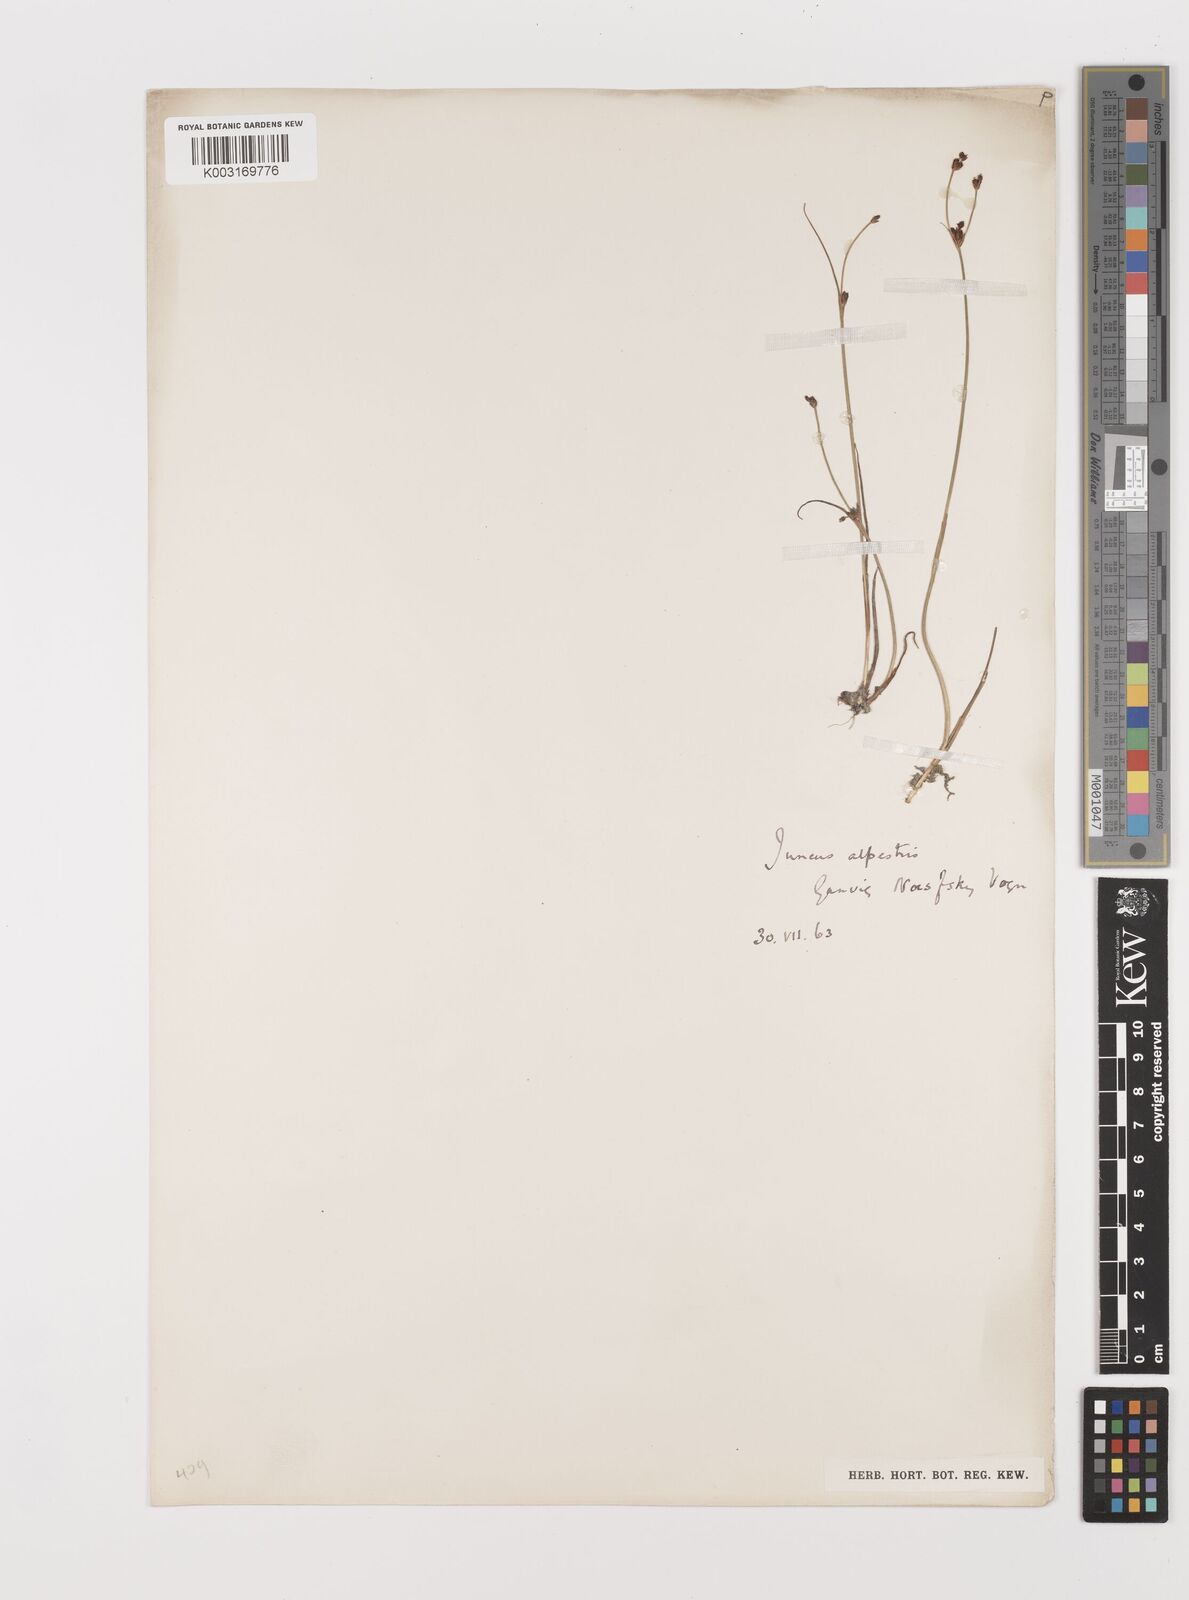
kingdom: Plantae
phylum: Tracheophyta
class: Liliopsida
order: Poales
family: Juncaceae
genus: Juncus
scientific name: Juncus alpinoarticulatus
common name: Alpine rush
